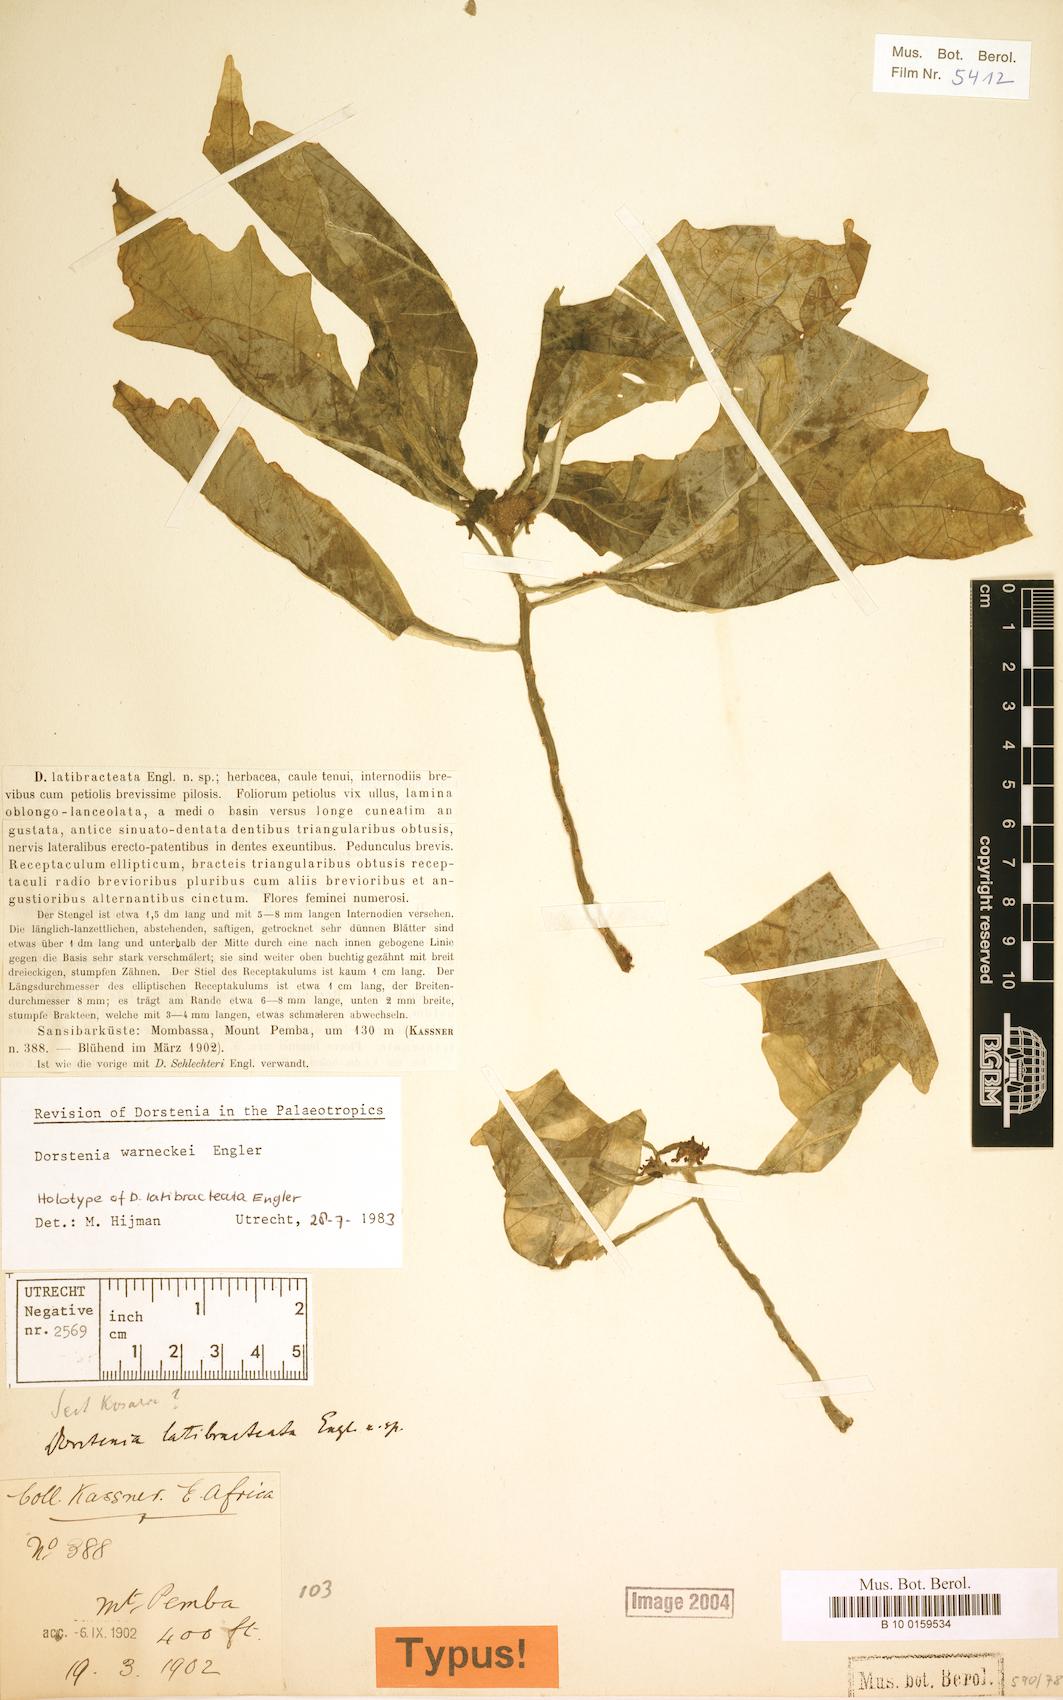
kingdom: Plantae
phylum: Tracheophyta
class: Magnoliopsida
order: Rosales
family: Moraceae
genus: Dorstenia
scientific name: Dorstenia warneckei
